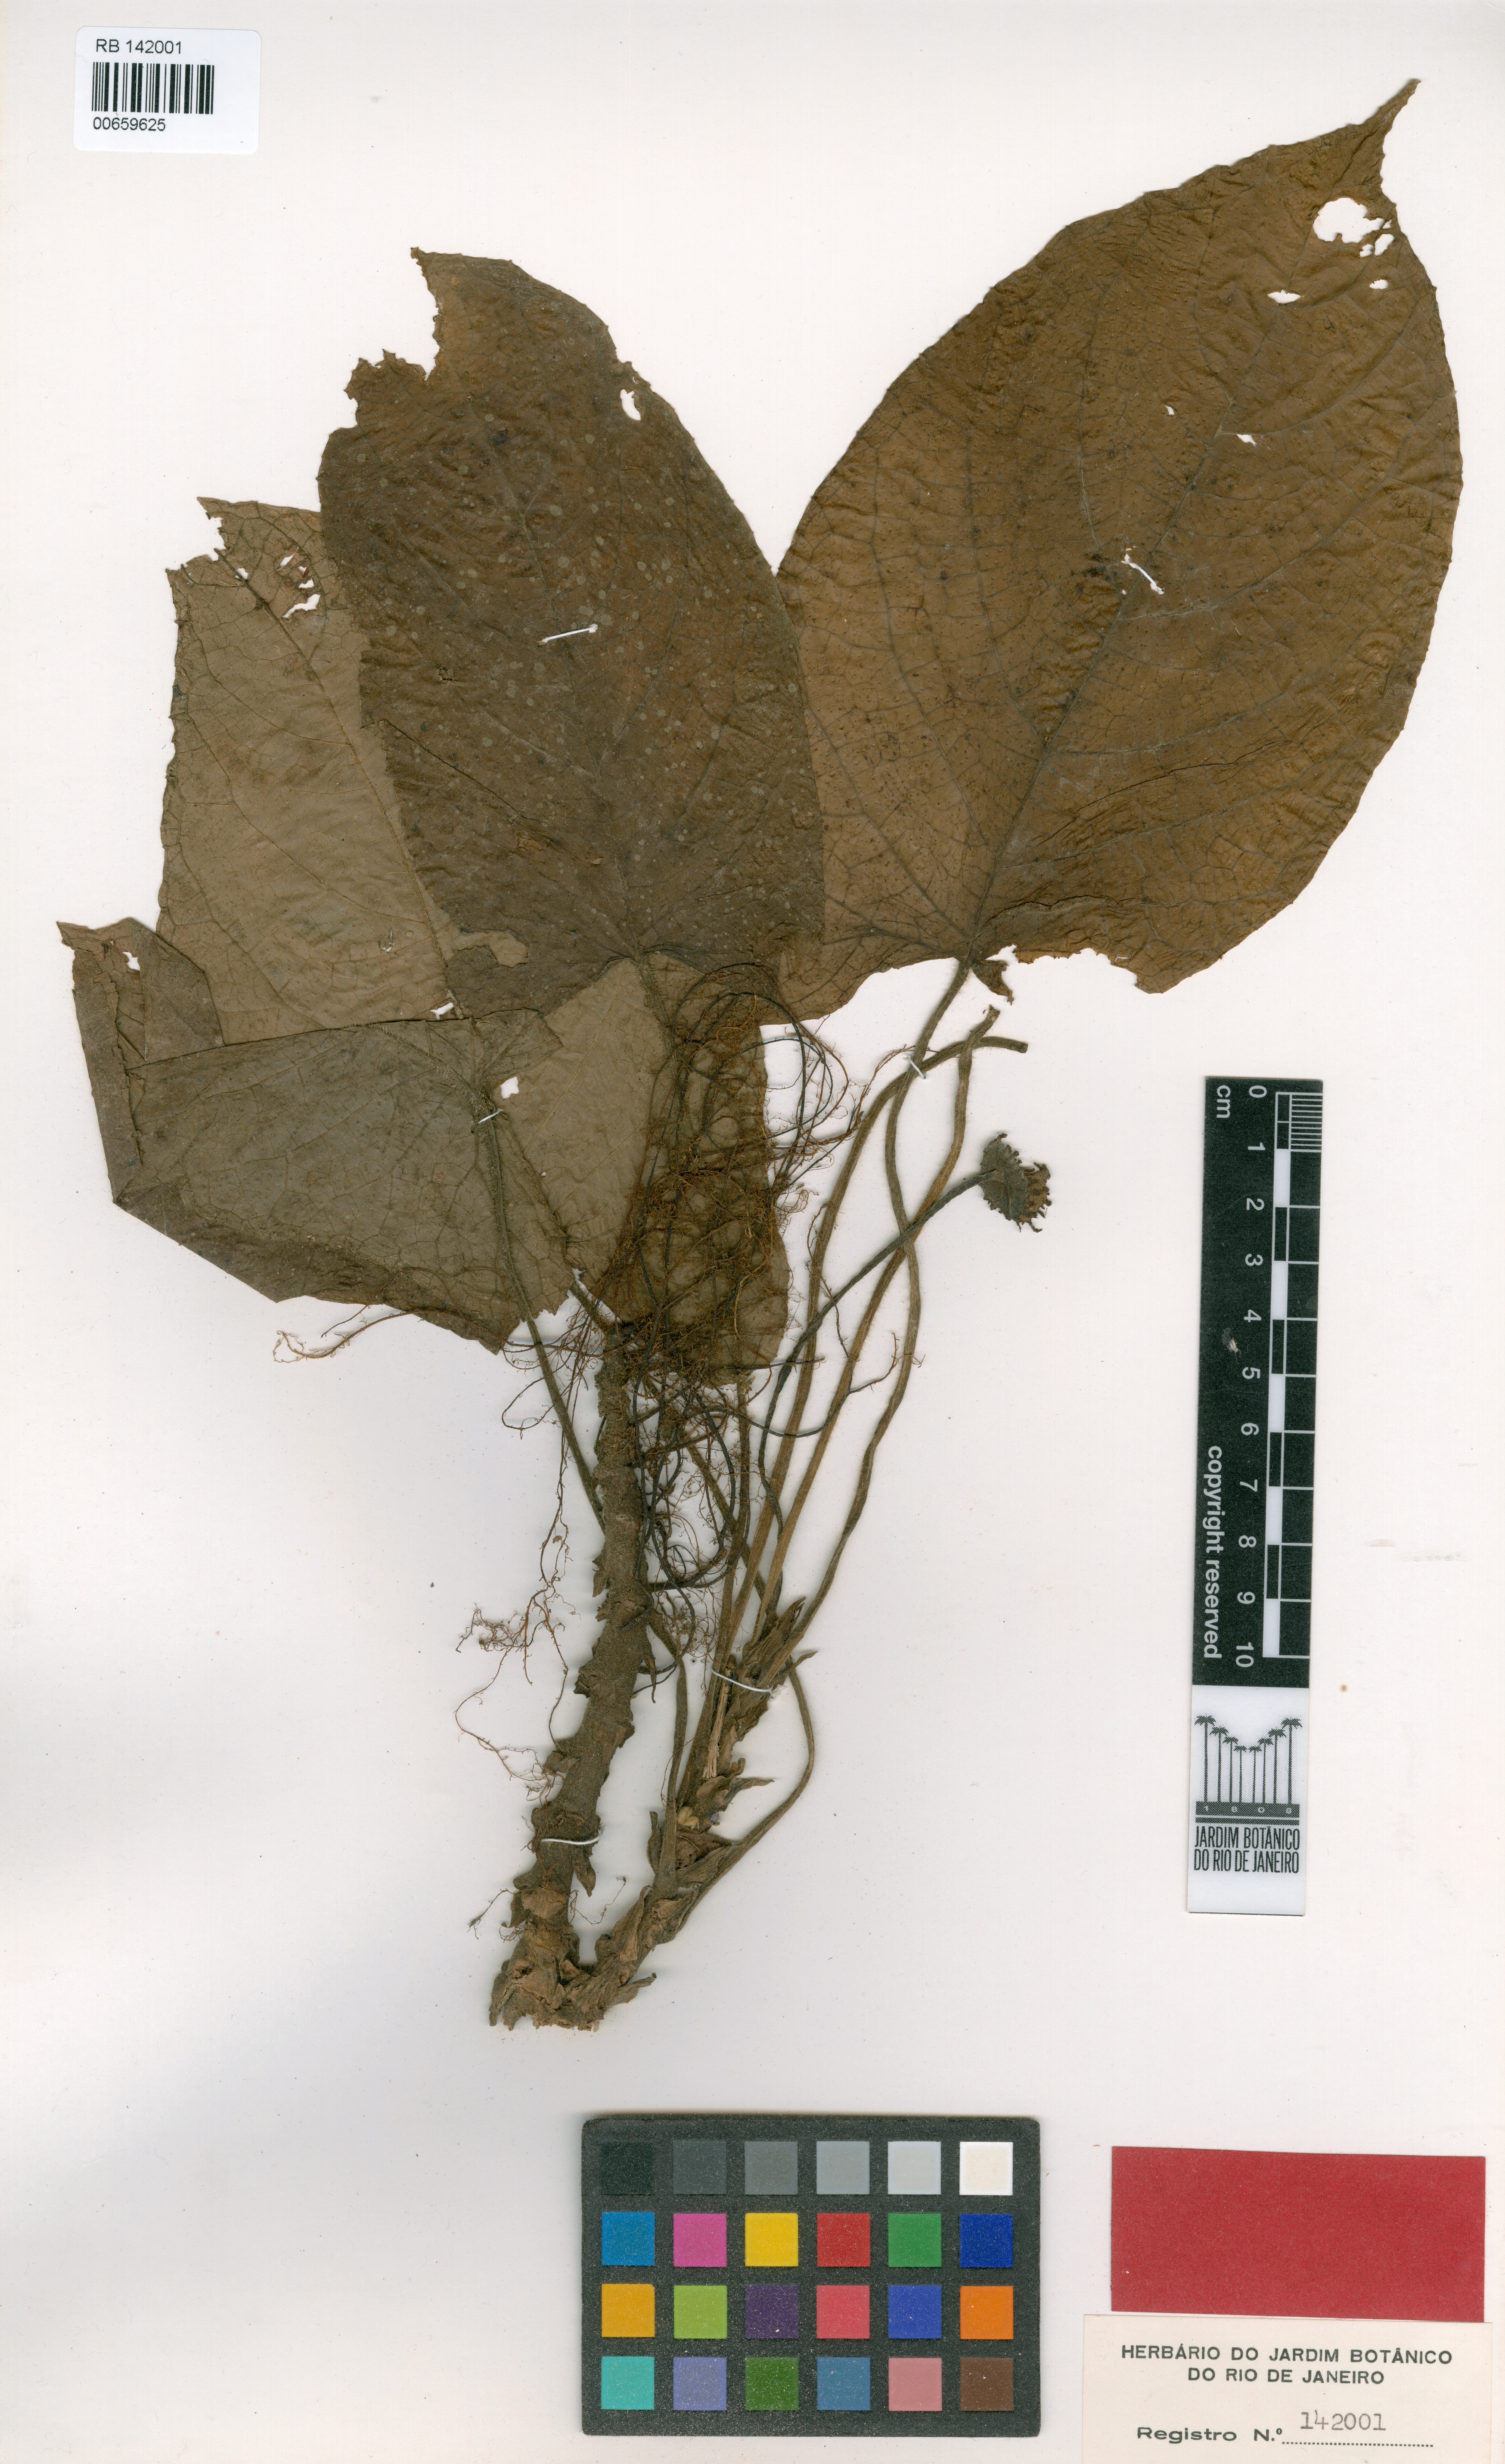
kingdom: Plantae
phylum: Tracheophyta
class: Magnoliopsida
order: Rosales
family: Moraceae
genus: Dorstenia
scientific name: Dorstenia grazielae
